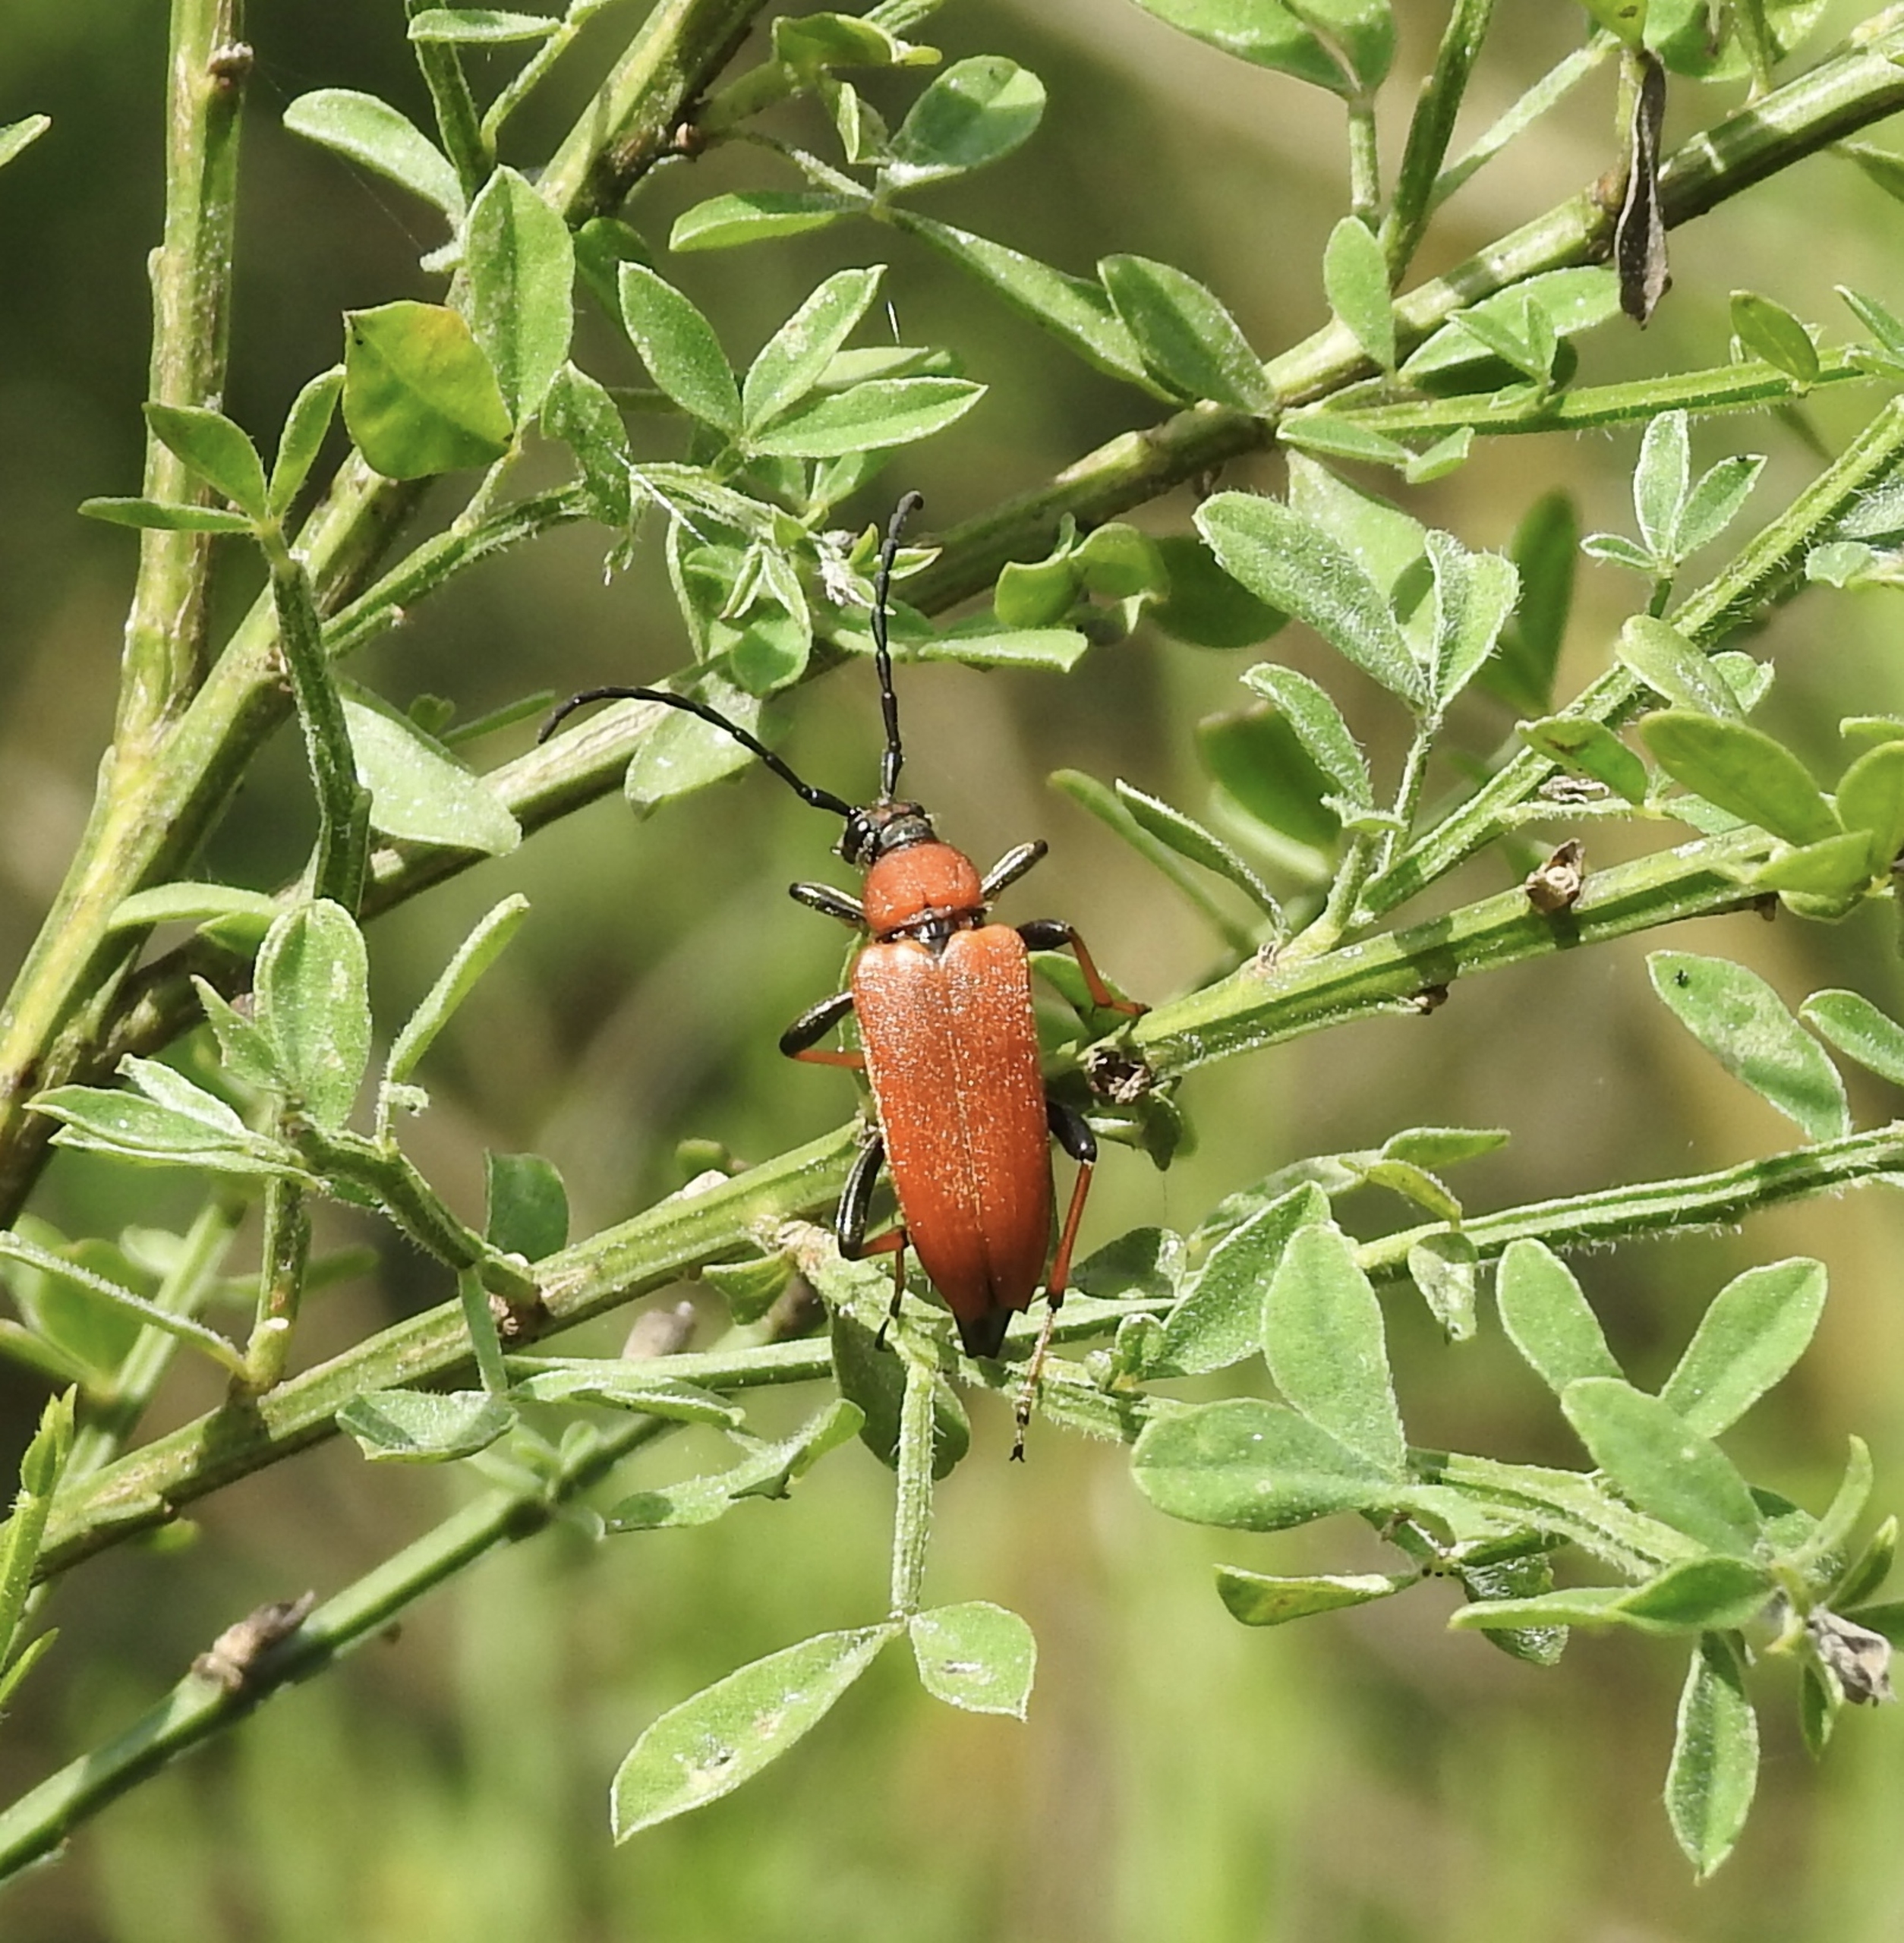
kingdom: Animalia
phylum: Arthropoda
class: Insecta
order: Coleoptera
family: Cerambycidae
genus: Stictoleptura
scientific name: Stictoleptura rubra
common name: Rød blomsterbuk
